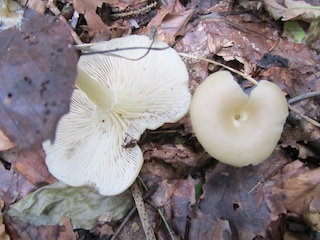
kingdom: Fungi
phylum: Basidiomycota
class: Agaricomycetes
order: Agaricales
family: Lyophyllaceae
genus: Clitolyophyllum
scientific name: Clitolyophyllum akcaabatense
